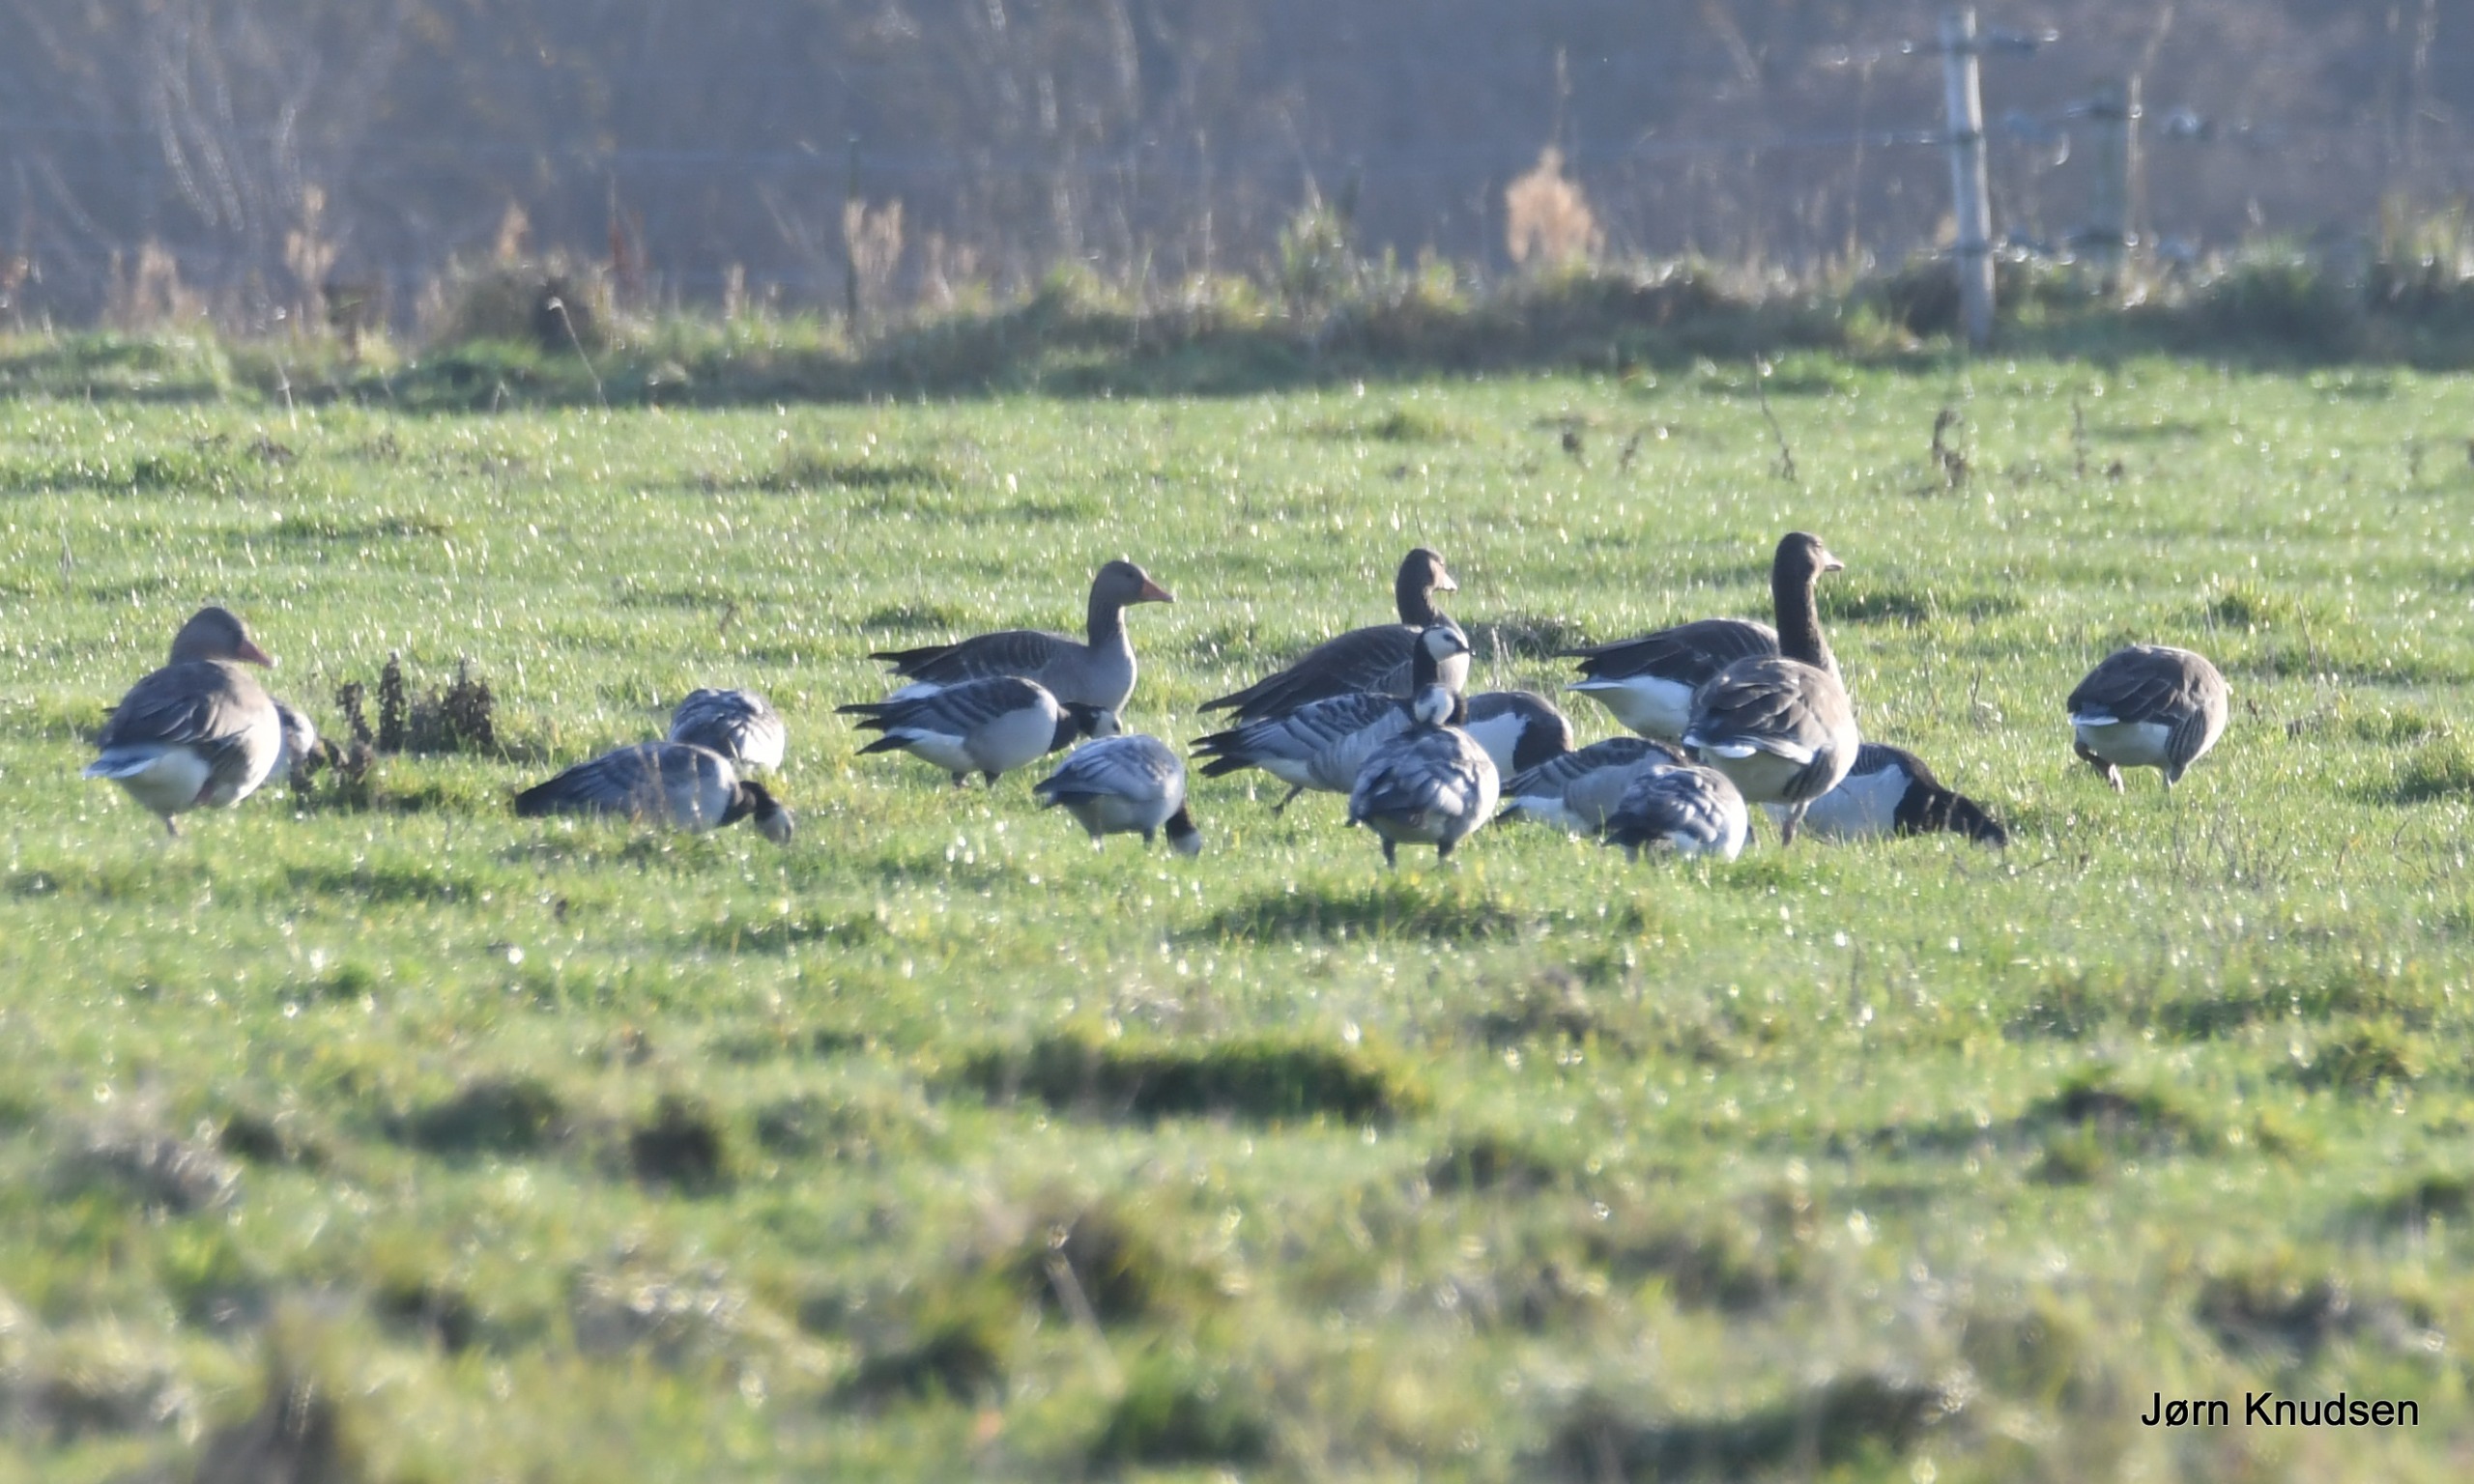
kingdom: Animalia
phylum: Chordata
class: Aves
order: Anseriformes
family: Anatidae
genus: Branta
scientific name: Branta leucopsis
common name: Bramgås
